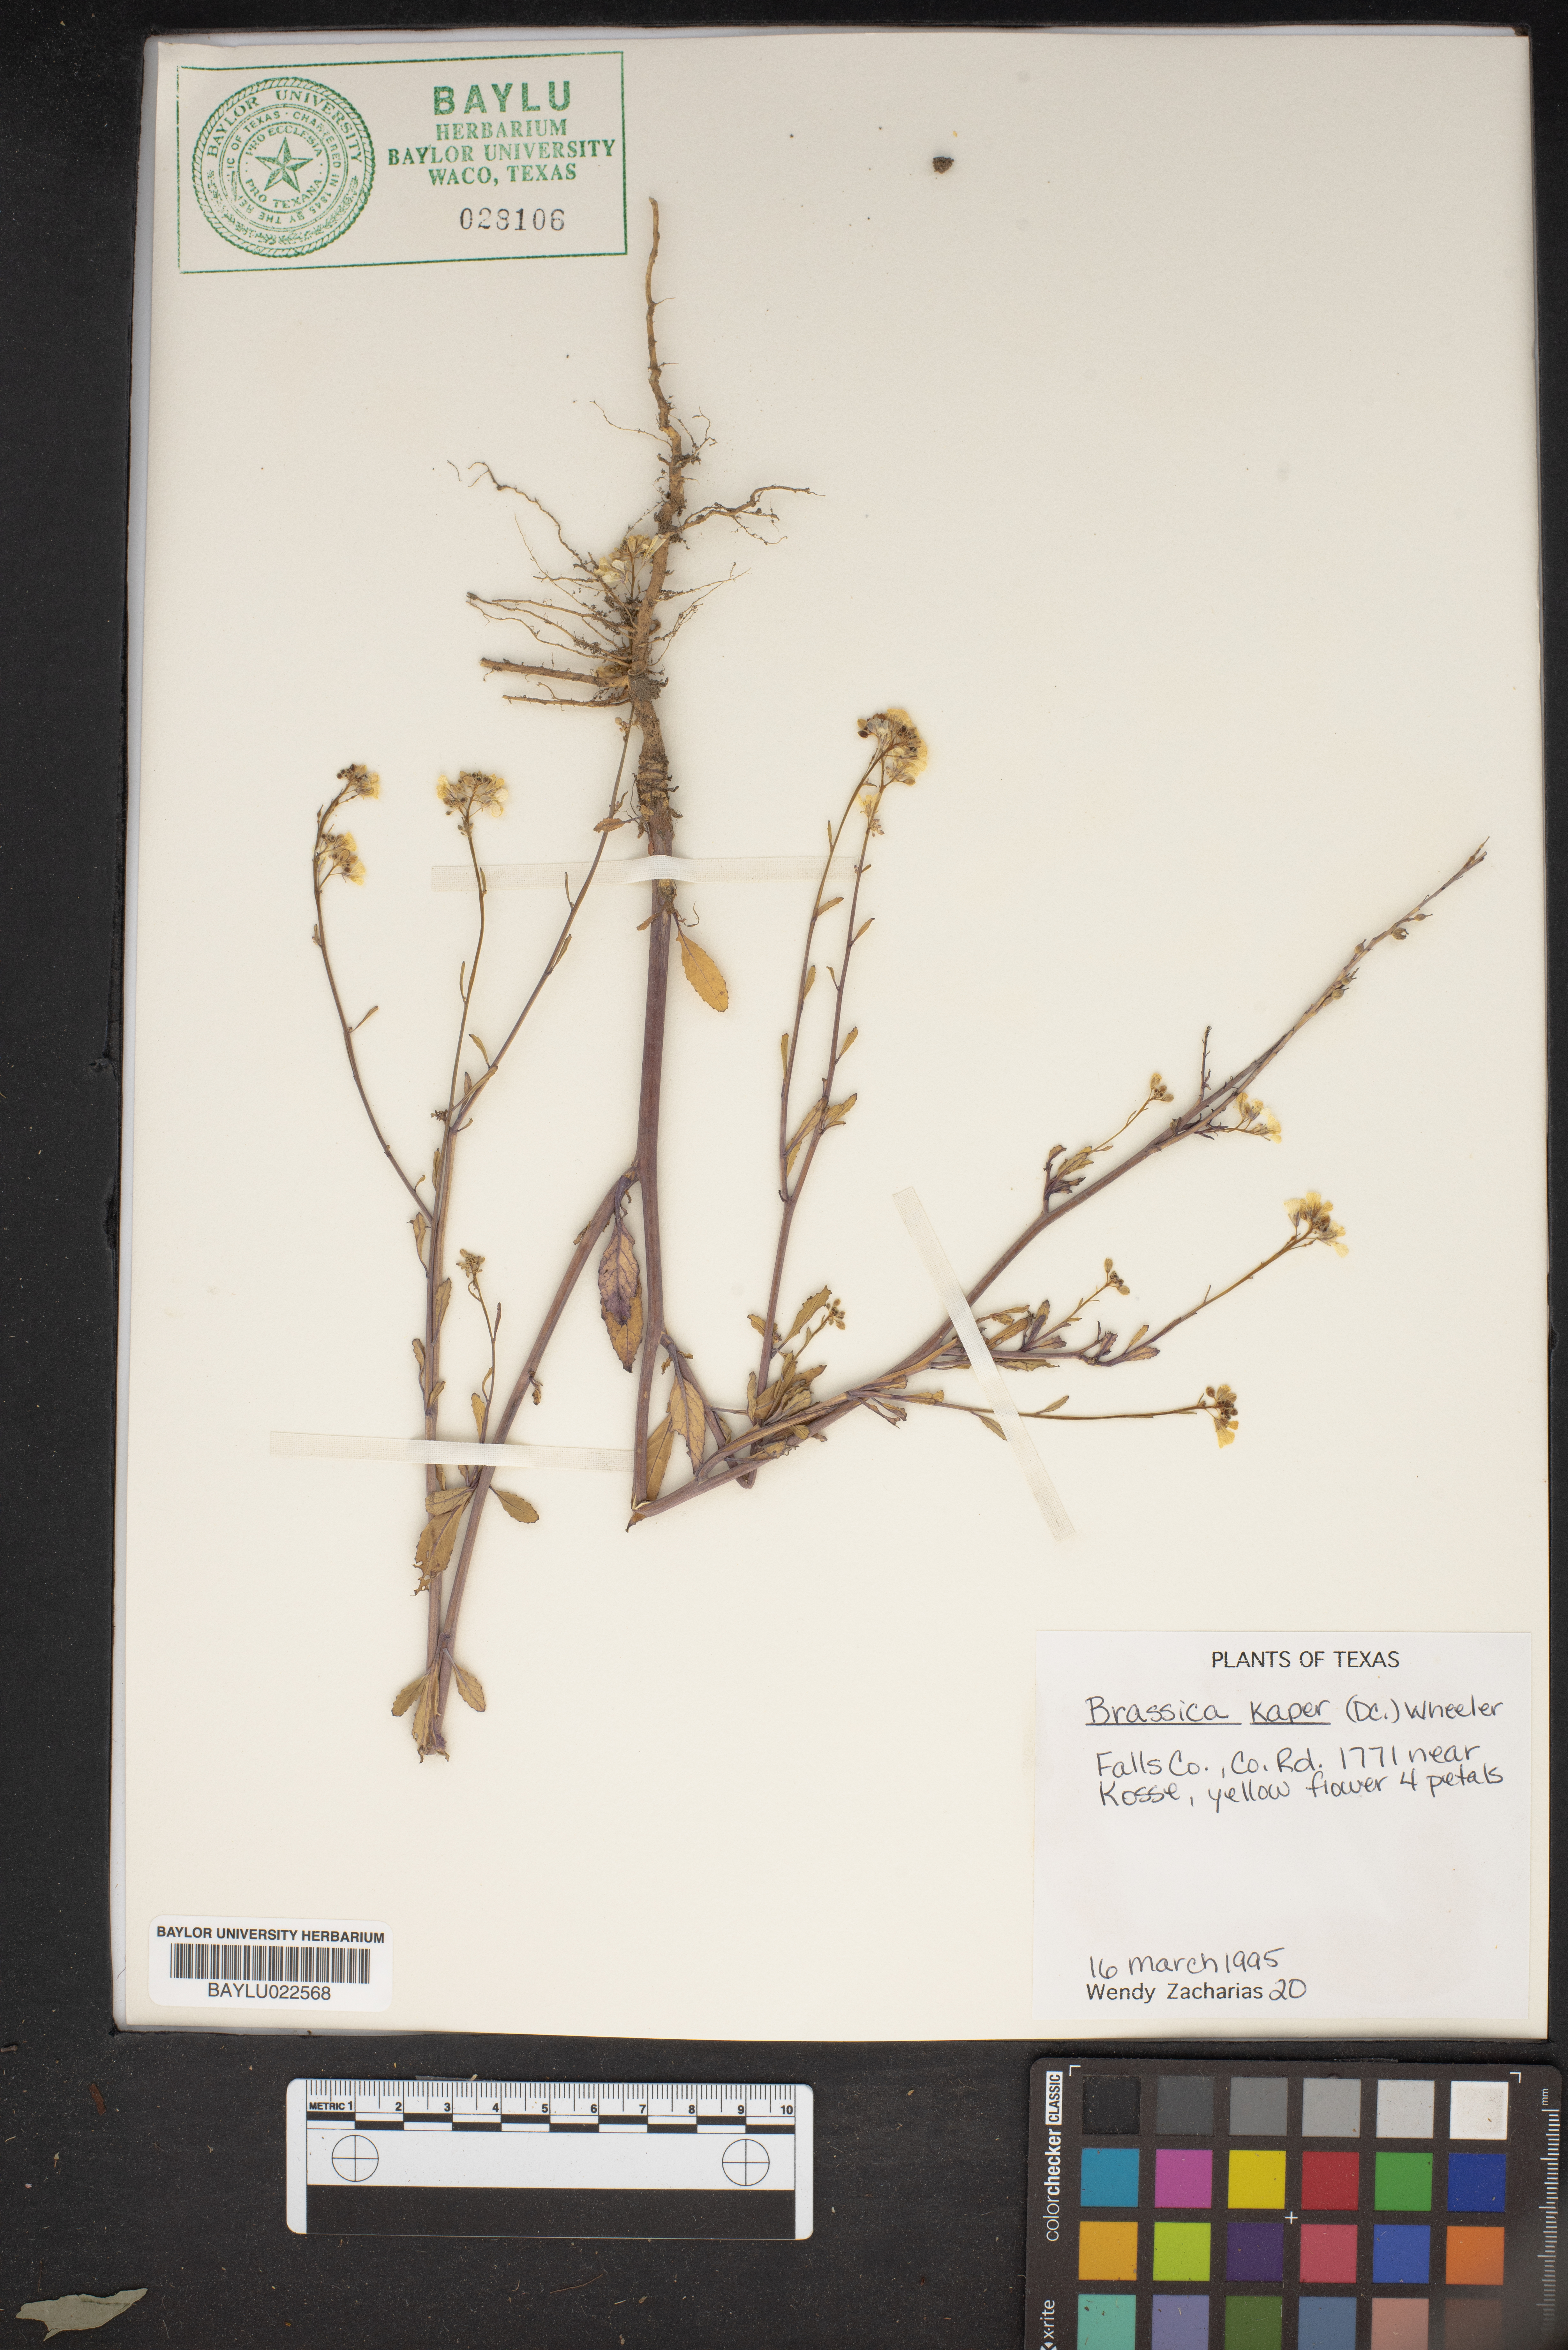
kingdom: Plantae
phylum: Tracheophyta
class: Magnoliopsida
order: Brassicales
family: Brassicaceae
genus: Sinapis
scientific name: Sinapis arvensis
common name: Charlock
